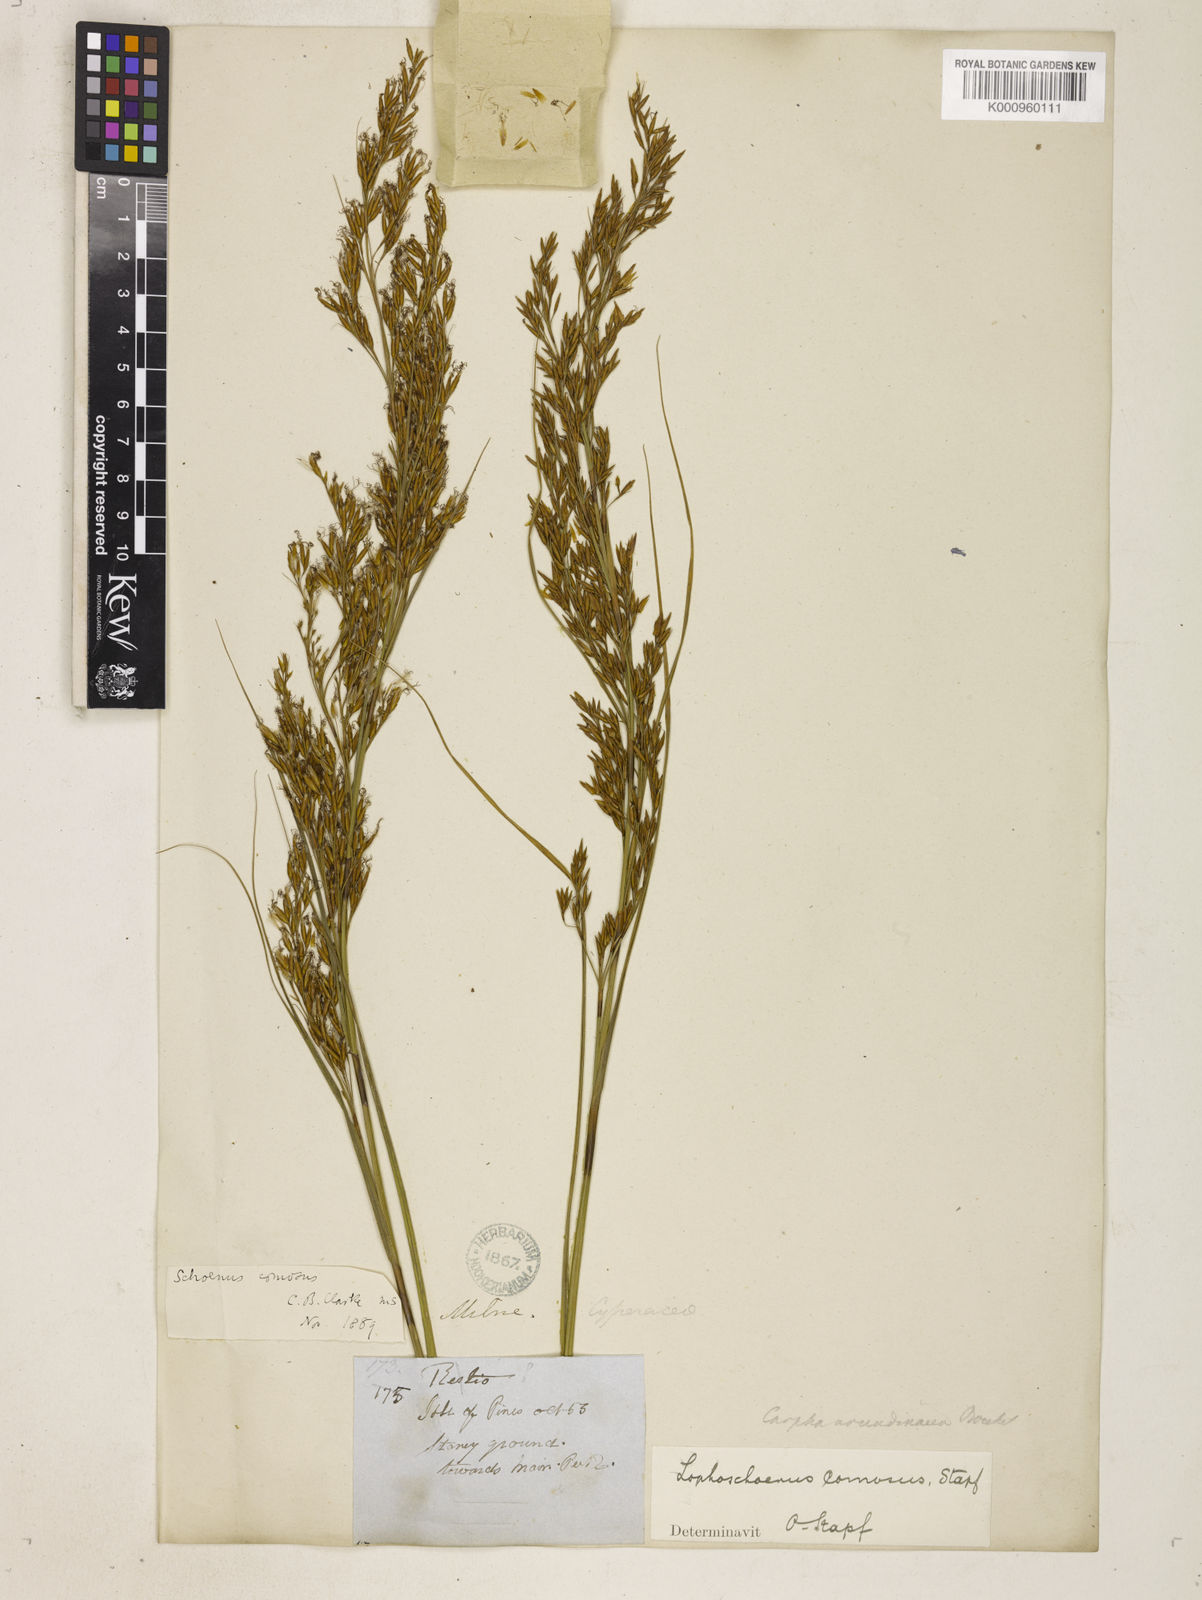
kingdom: Plantae
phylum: Tracheophyta
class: Liliopsida
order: Poales
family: Cyperaceae
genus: Costularia
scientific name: Costularia
